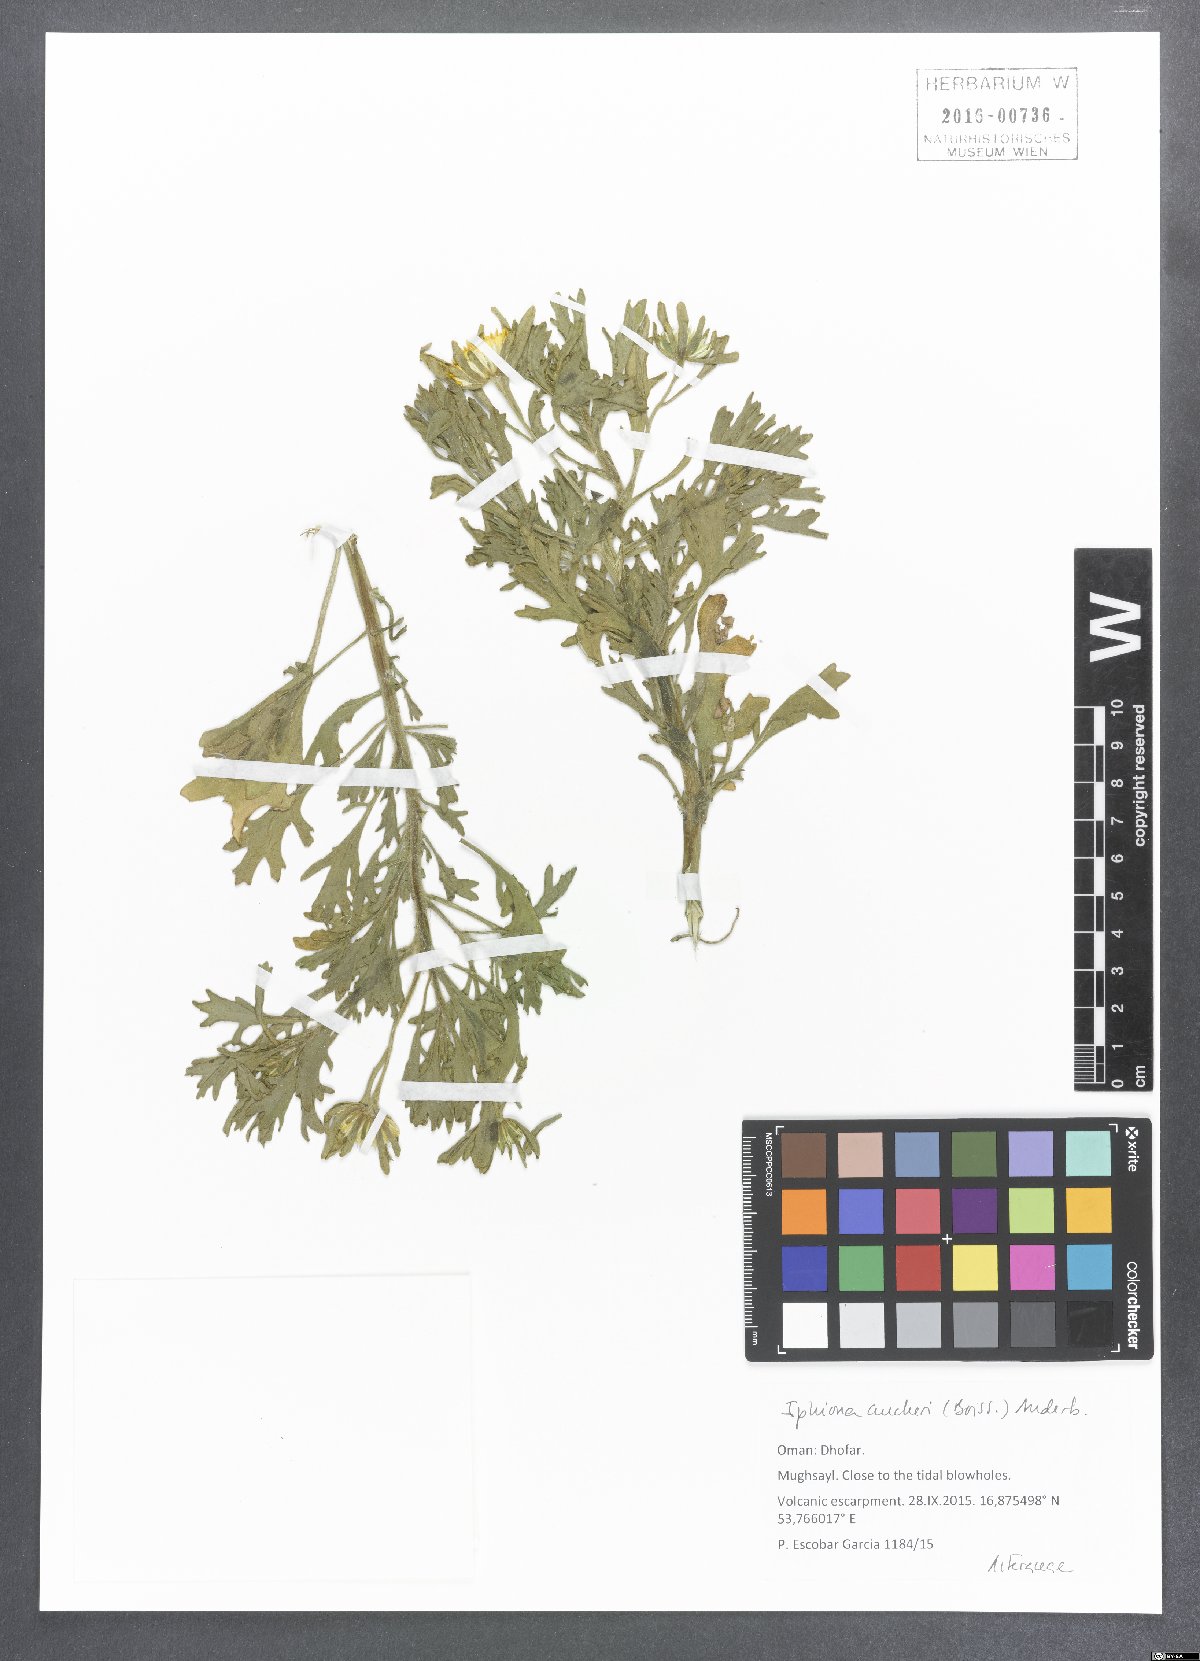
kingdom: Plantae
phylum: Tracheophyta
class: Magnoliopsida
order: Asterales
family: Asteraceae
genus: Iphiona
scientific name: Iphiona aucheri
